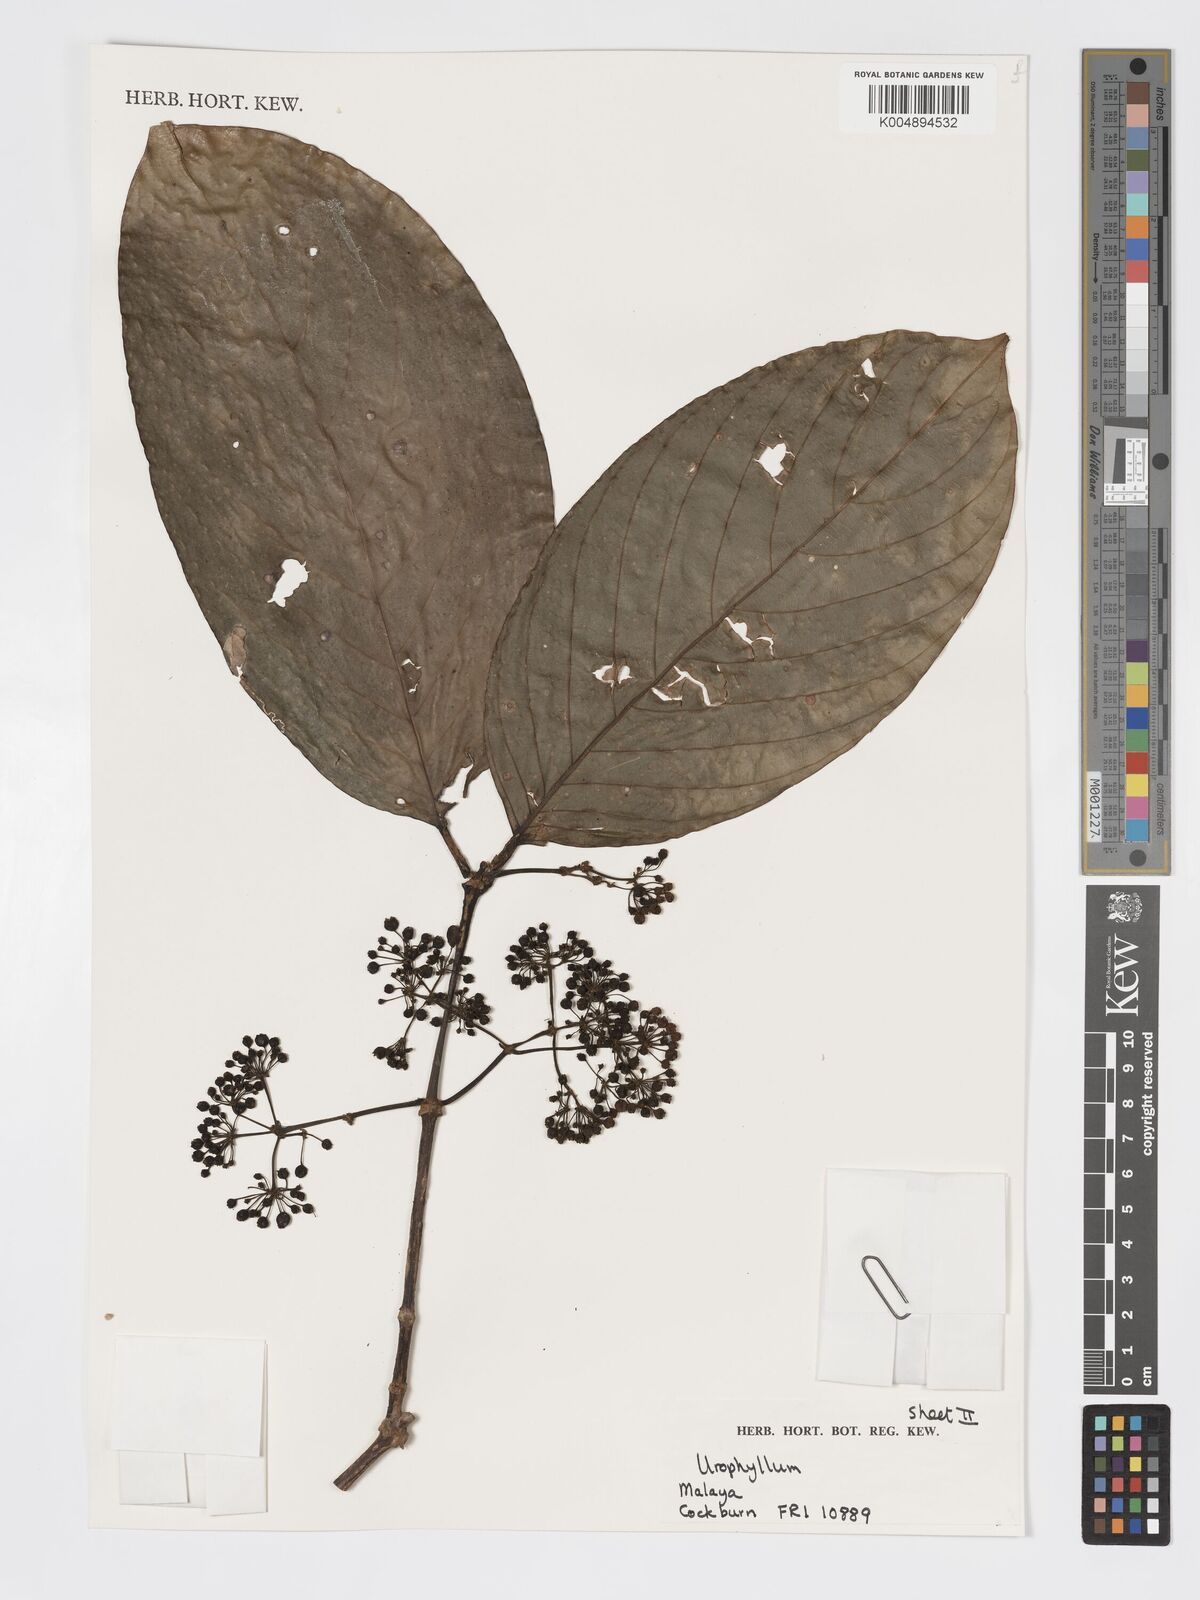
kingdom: Plantae
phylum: Tracheophyta
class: Magnoliopsida
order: Gentianales
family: Rubiaceae
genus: Urophyllum
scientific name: Urophyllum malayense
